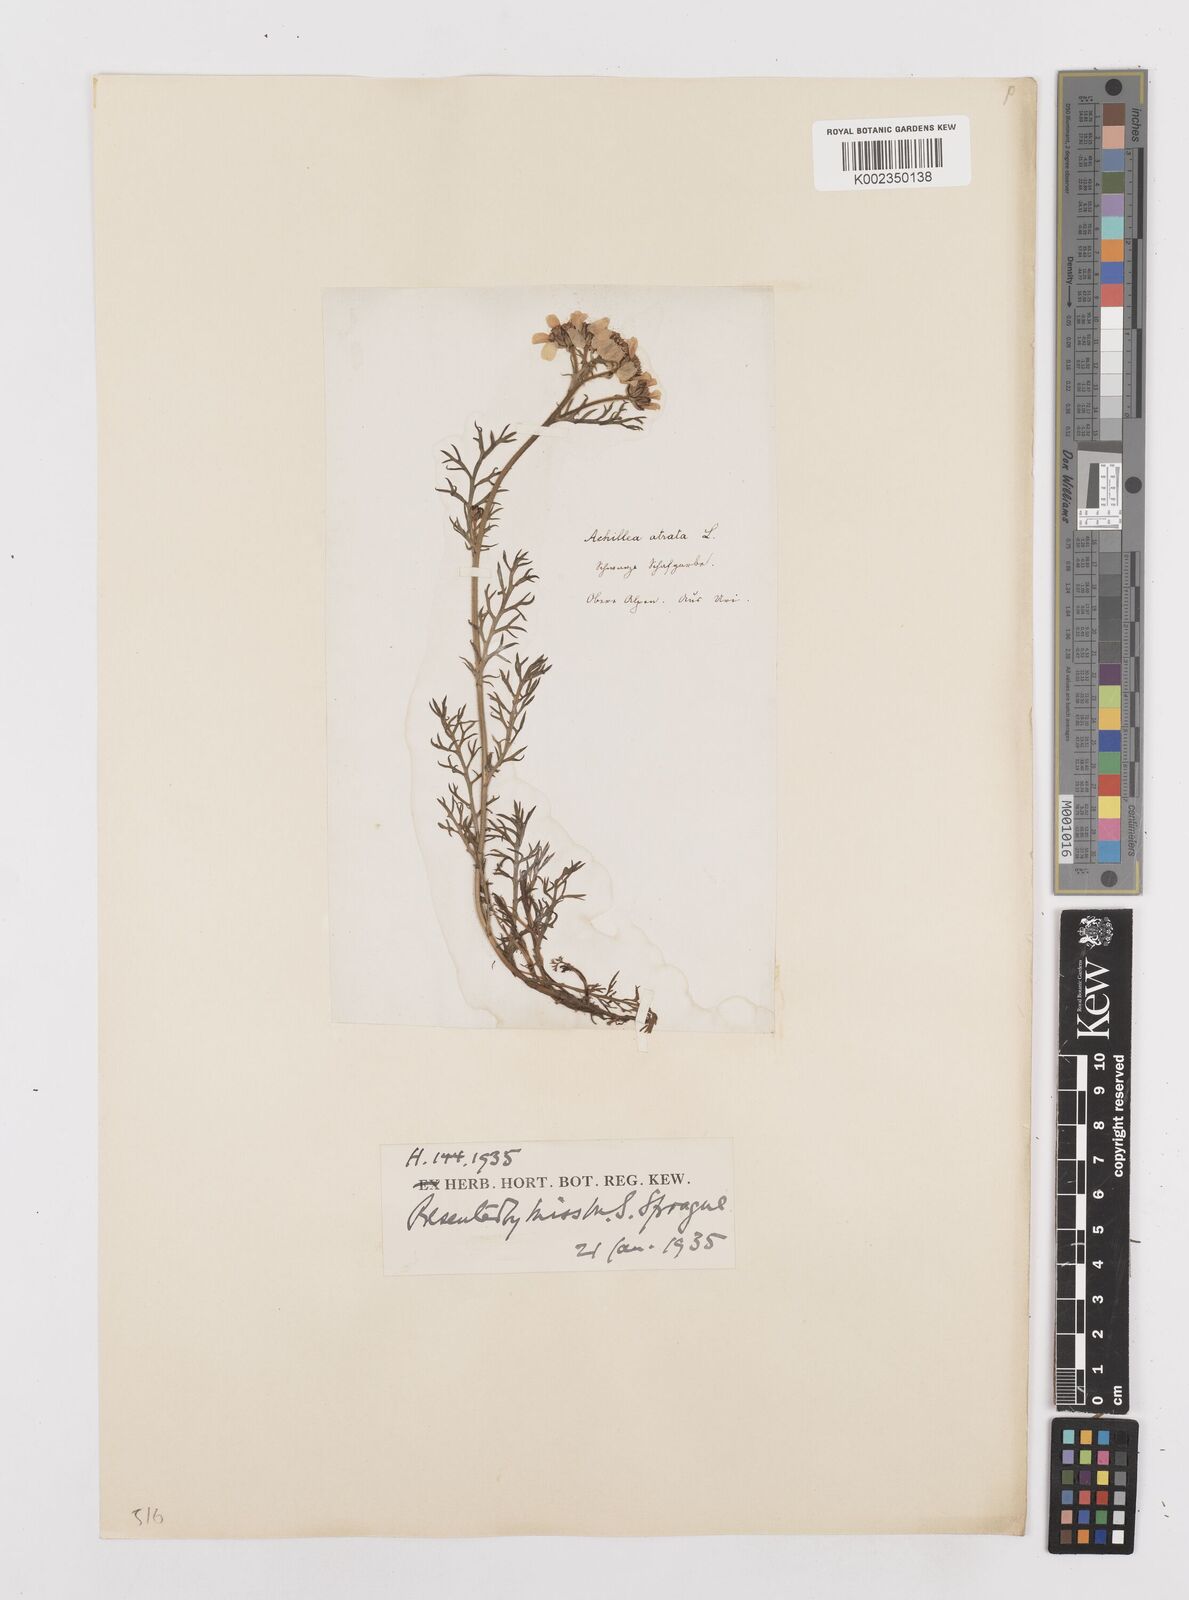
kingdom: Plantae
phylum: Tracheophyta
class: Magnoliopsida
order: Asterales
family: Asteraceae
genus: Achillea
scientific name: Achillea atrata
